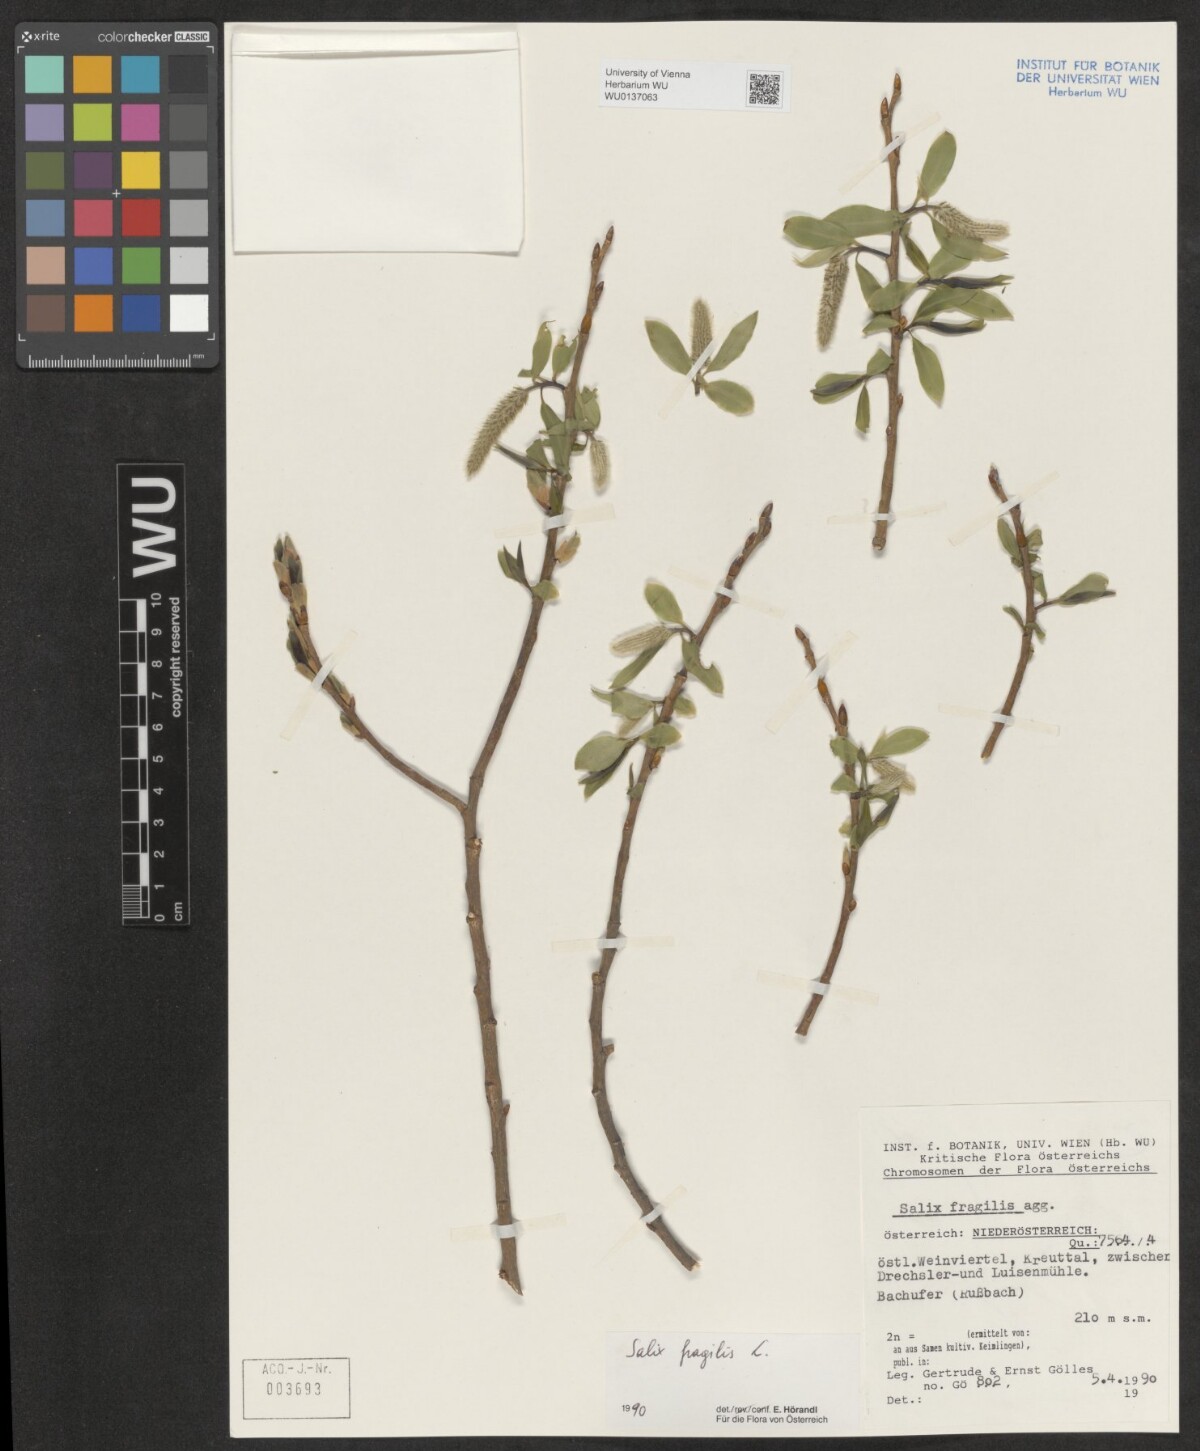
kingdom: Plantae
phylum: Tracheophyta
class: Magnoliopsida
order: Malpighiales
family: Salicaceae
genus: Salix
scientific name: Salix fragilis
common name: Crack willow
